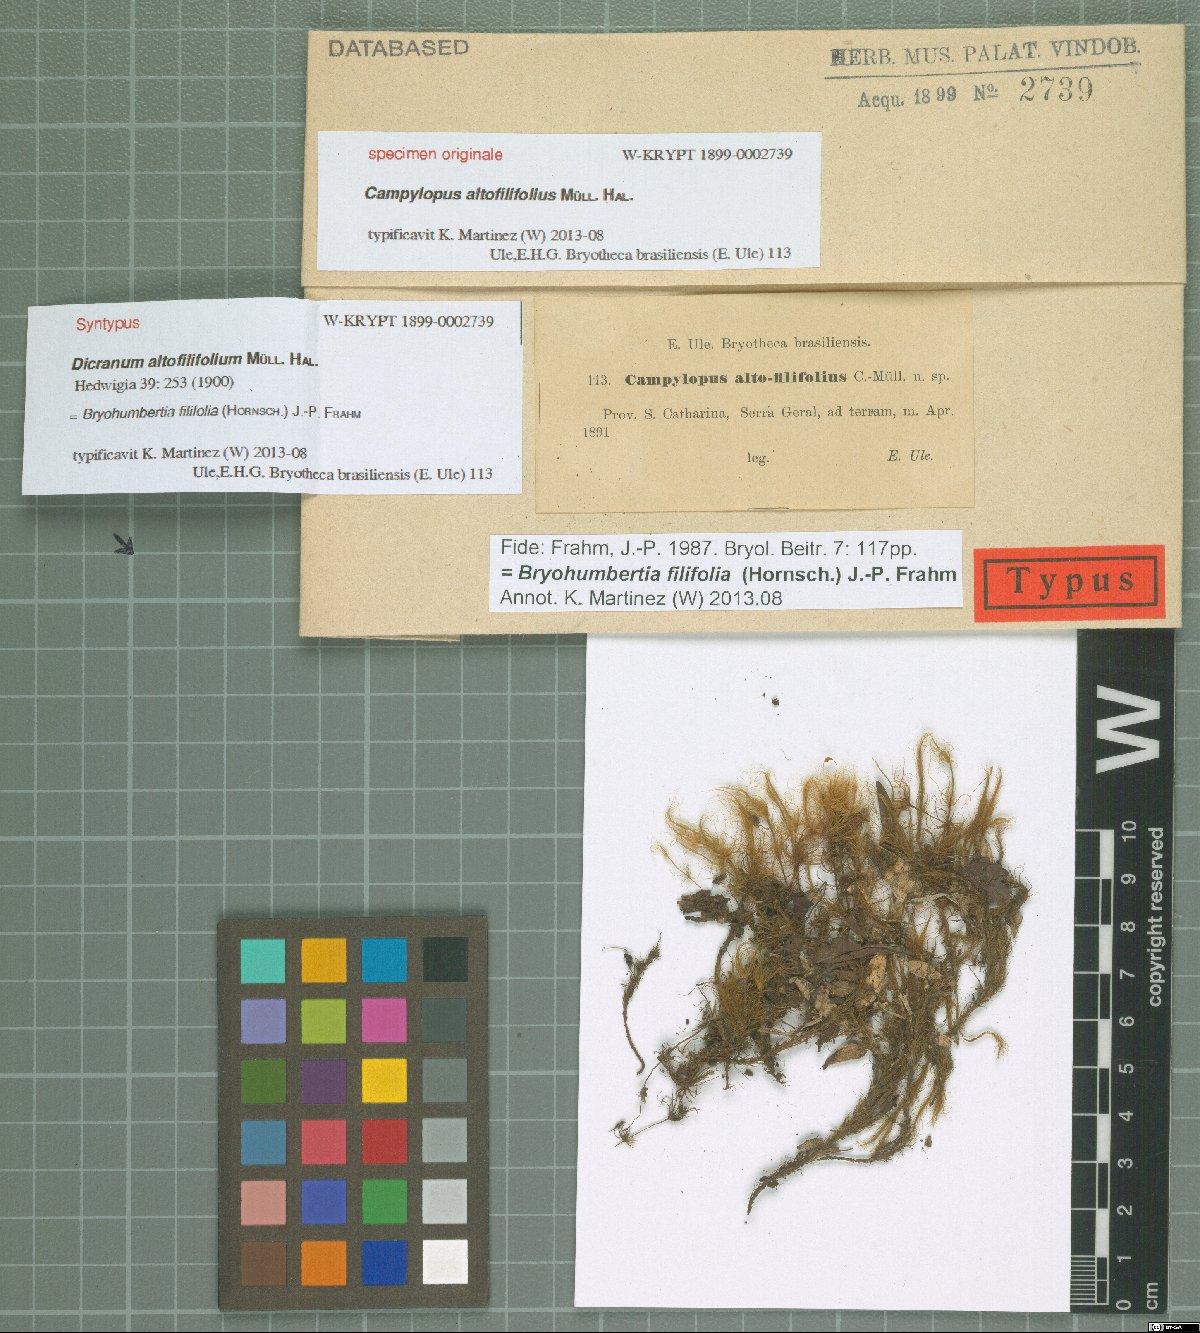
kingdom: Plantae
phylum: Bryophyta
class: Bryopsida
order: Dicranales
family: Leucobryaceae
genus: Campylopus
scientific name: Campylopus filifolius
